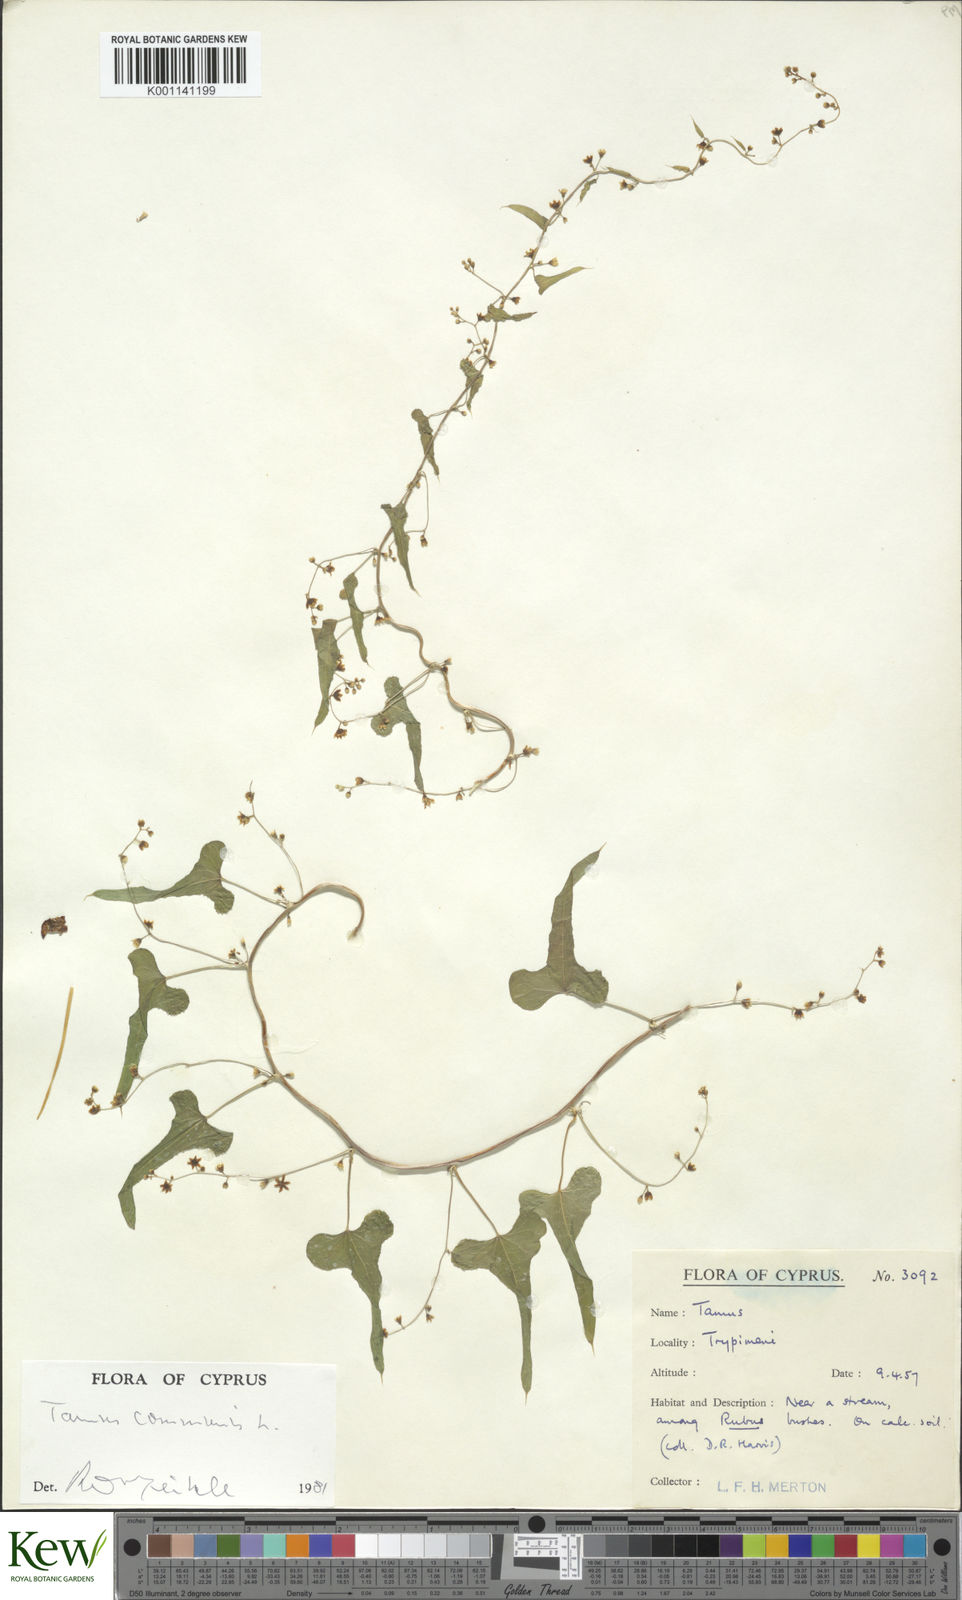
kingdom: Plantae
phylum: Tracheophyta
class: Liliopsida
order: Dioscoreales
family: Dioscoreaceae
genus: Dioscorea
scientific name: Dioscorea communis
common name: Black-bindweed
